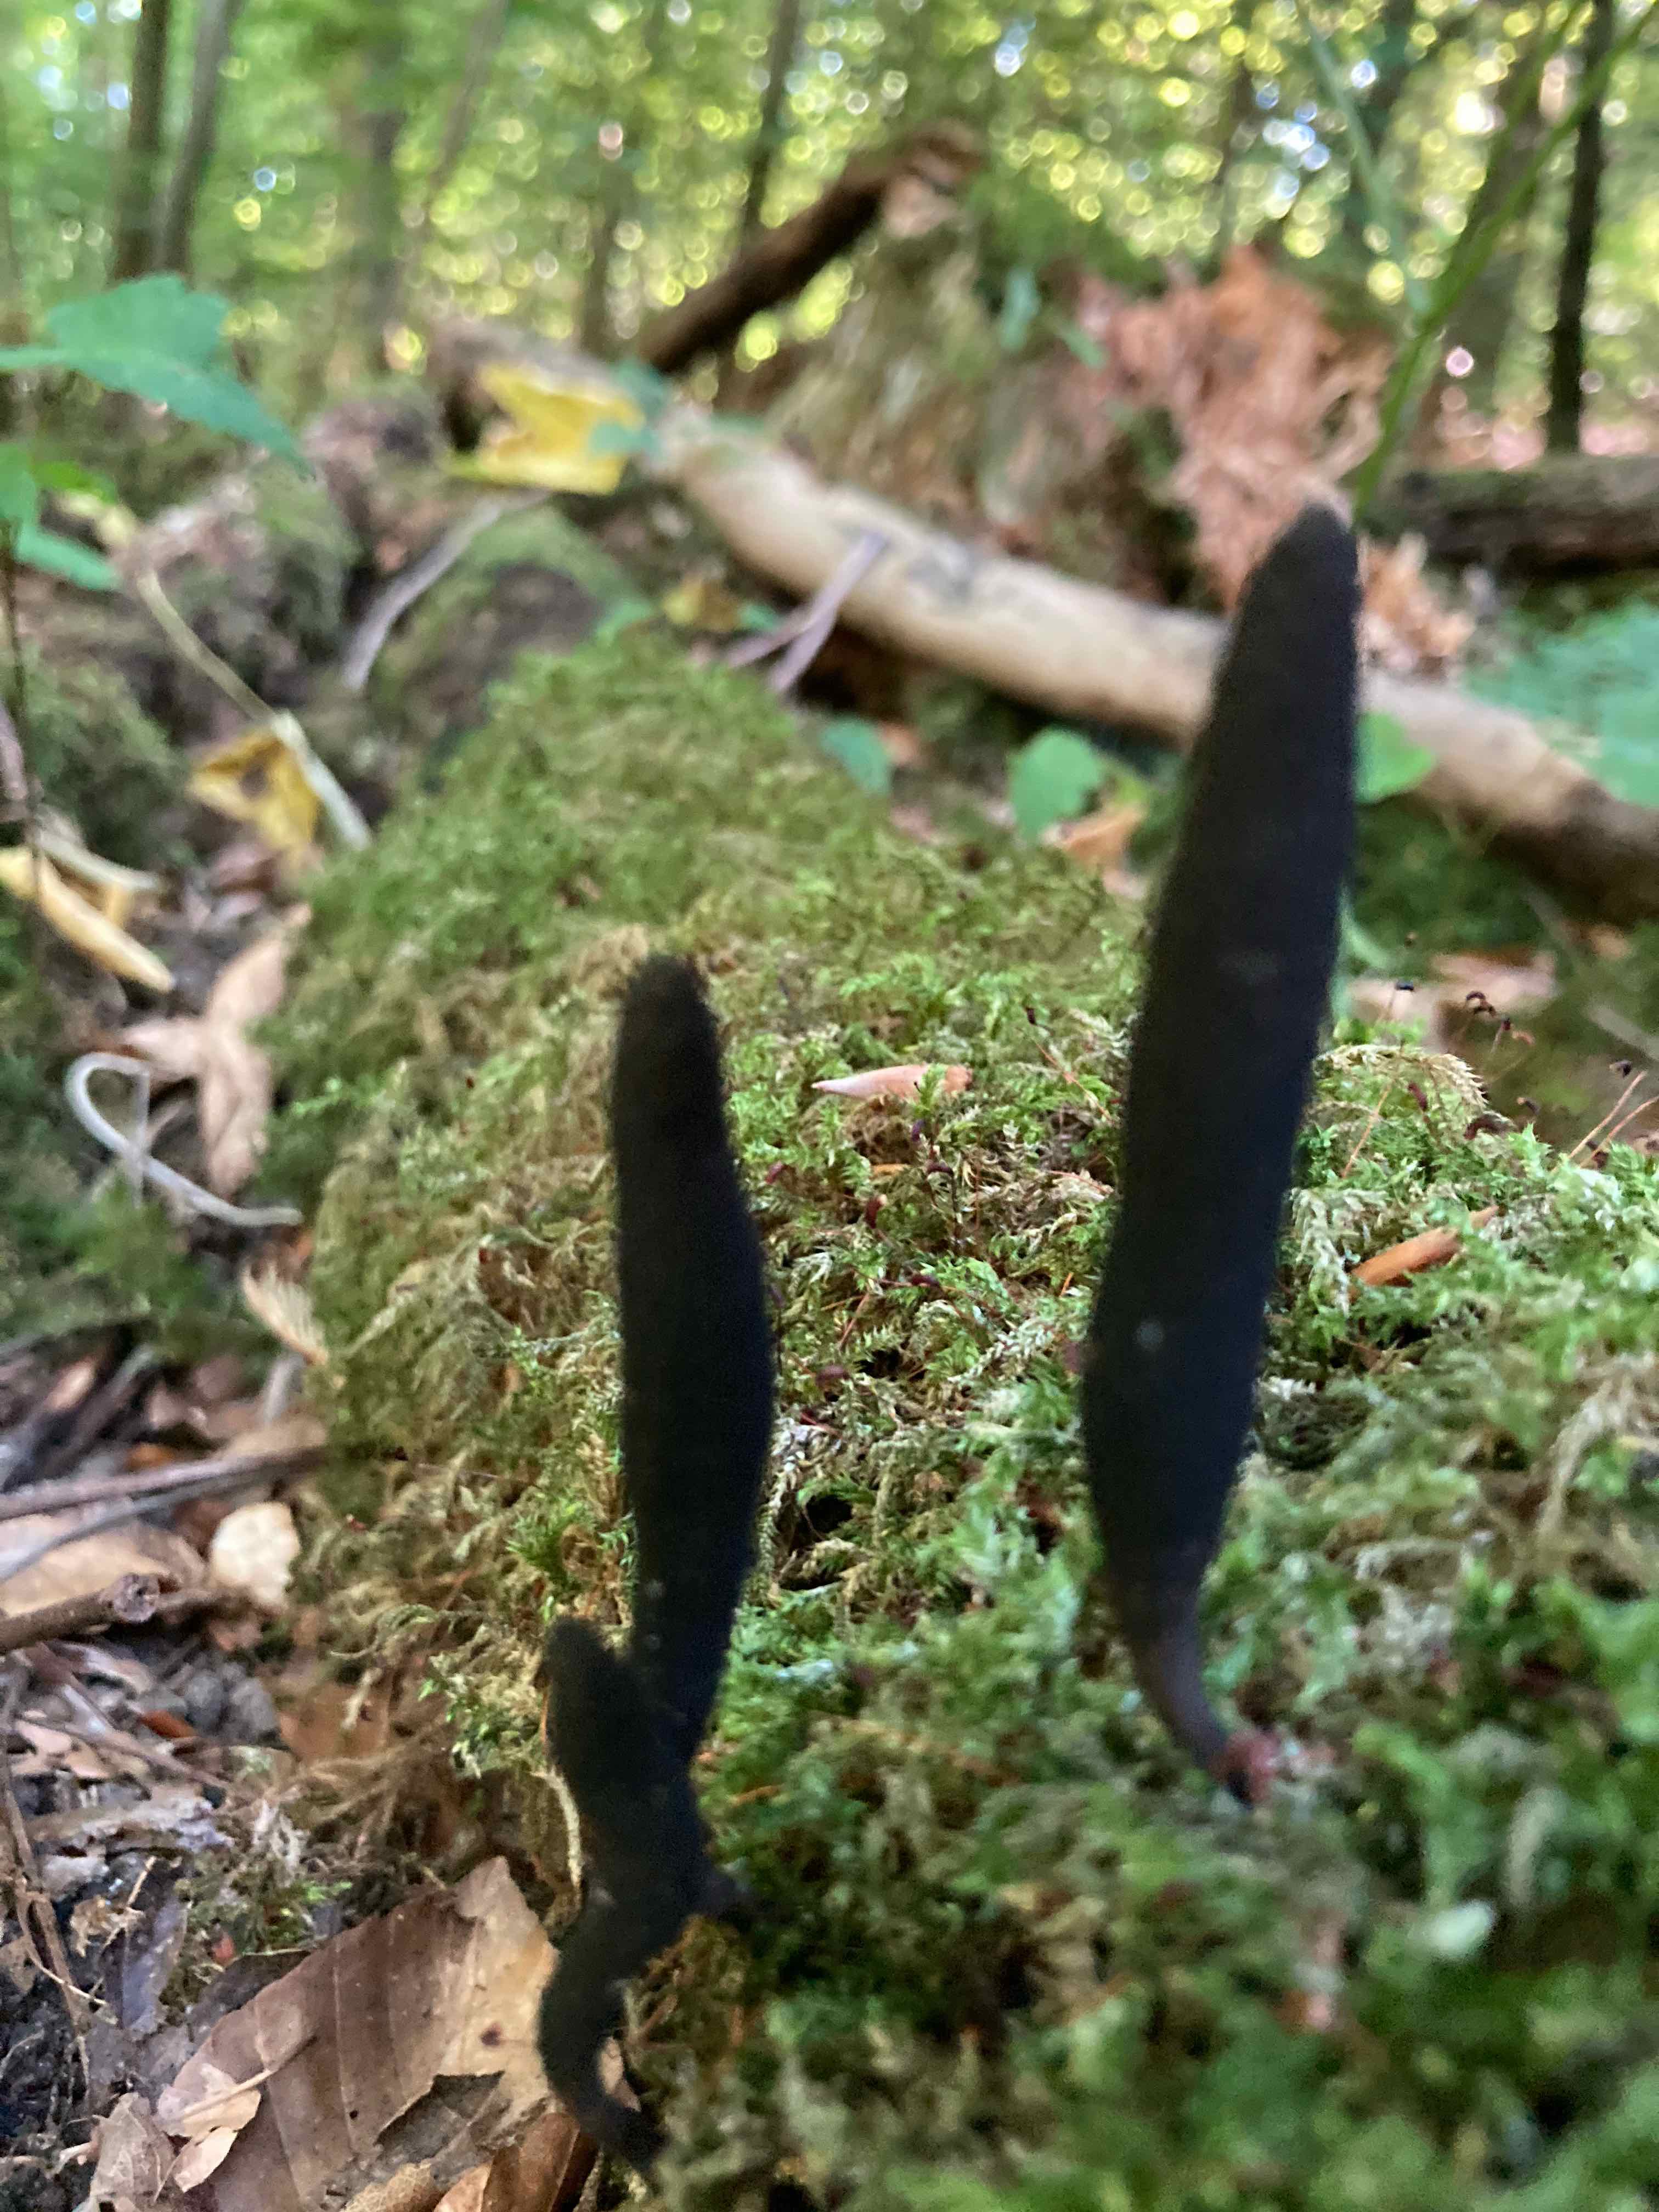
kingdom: Fungi
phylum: Ascomycota
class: Sordariomycetes
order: Xylariales
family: Xylariaceae
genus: Xylaria
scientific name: Xylaria longipes
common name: slank stødsvamp
